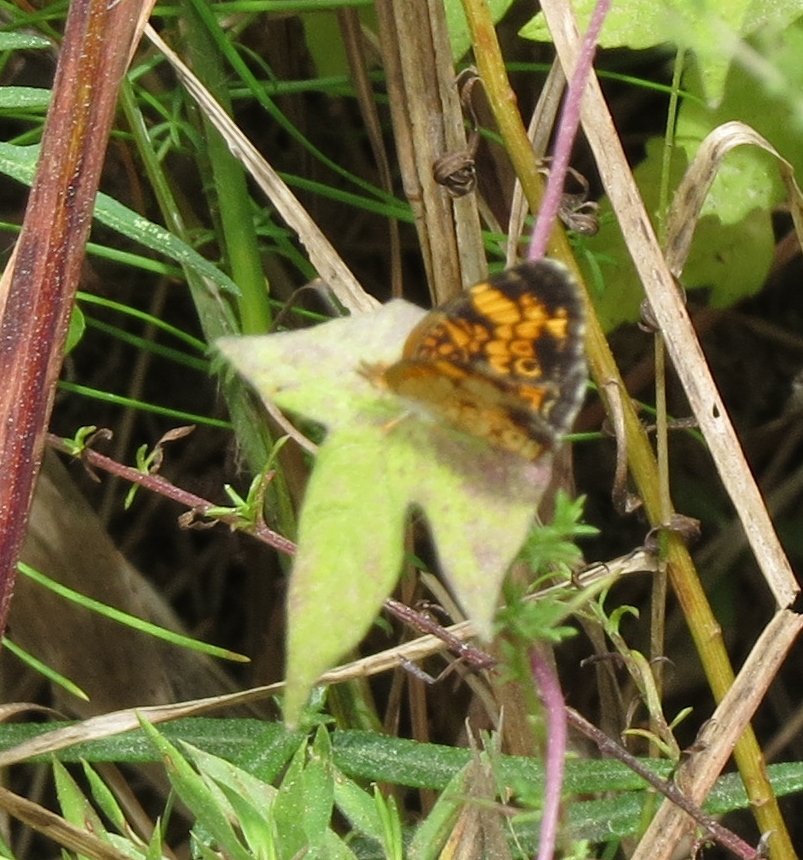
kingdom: Animalia
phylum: Arthropoda
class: Insecta
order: Lepidoptera
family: Nymphalidae
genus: Phyciodes
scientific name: Phyciodes tharos
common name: Pearl Crescent
